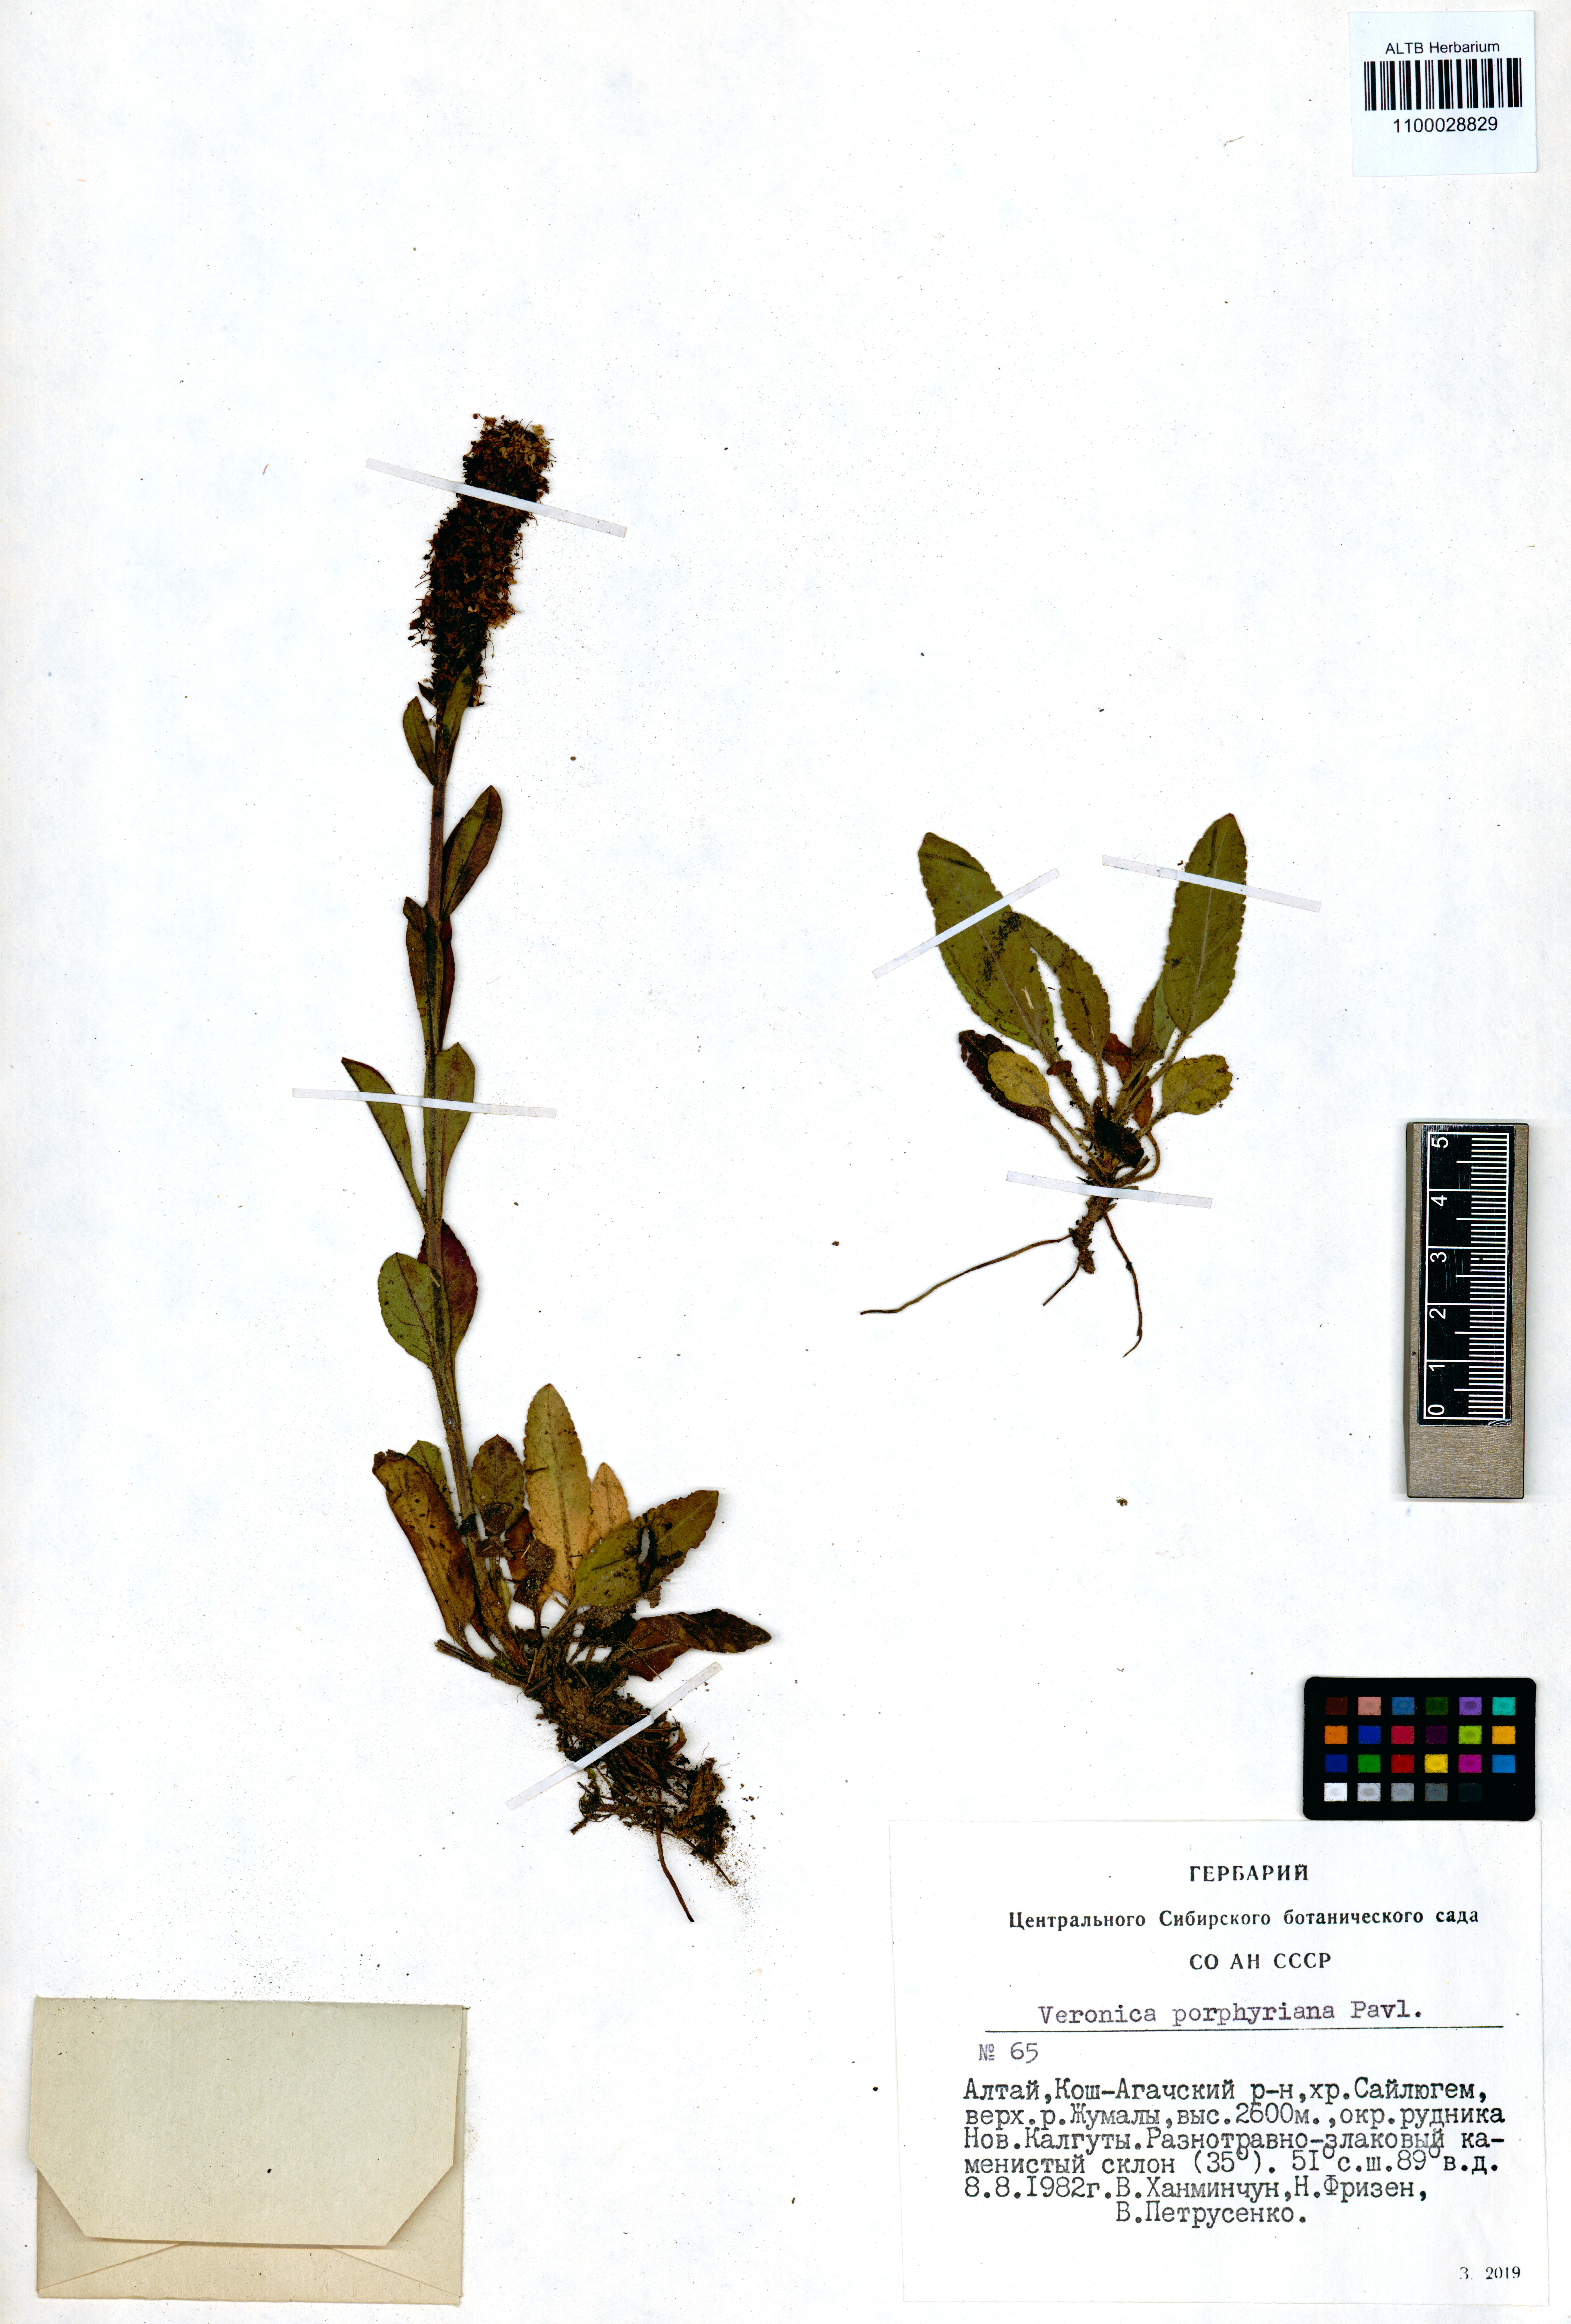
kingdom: Plantae
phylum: Tracheophyta
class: Magnoliopsida
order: Lamiales
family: Plantaginaceae
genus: Veronica
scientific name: Veronica porphyriana
